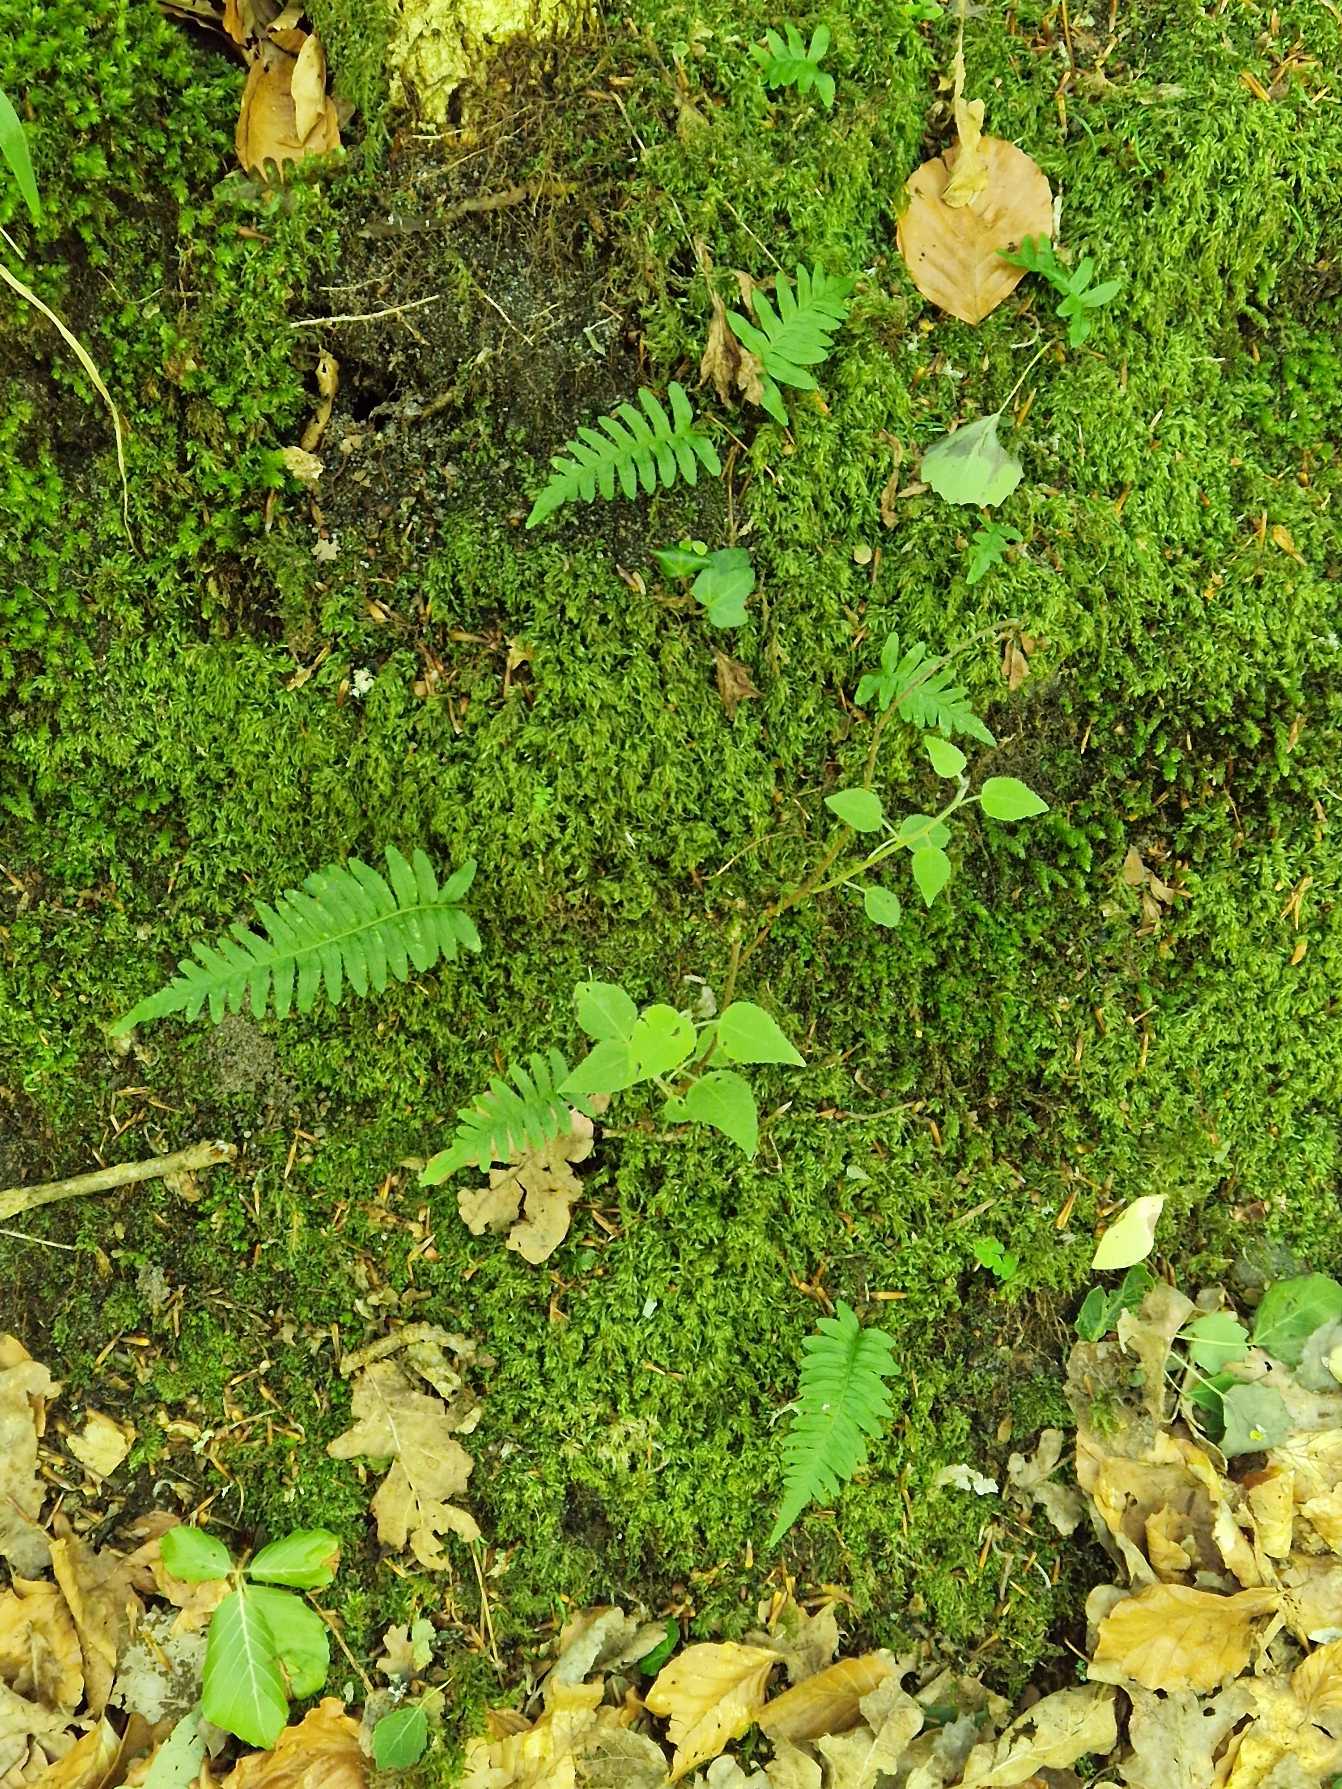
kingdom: Plantae
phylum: Tracheophyta
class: Polypodiopsida
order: Polypodiales
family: Polypodiaceae
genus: Polypodium
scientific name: Polypodium vulgare
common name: Almindelig engelsød
